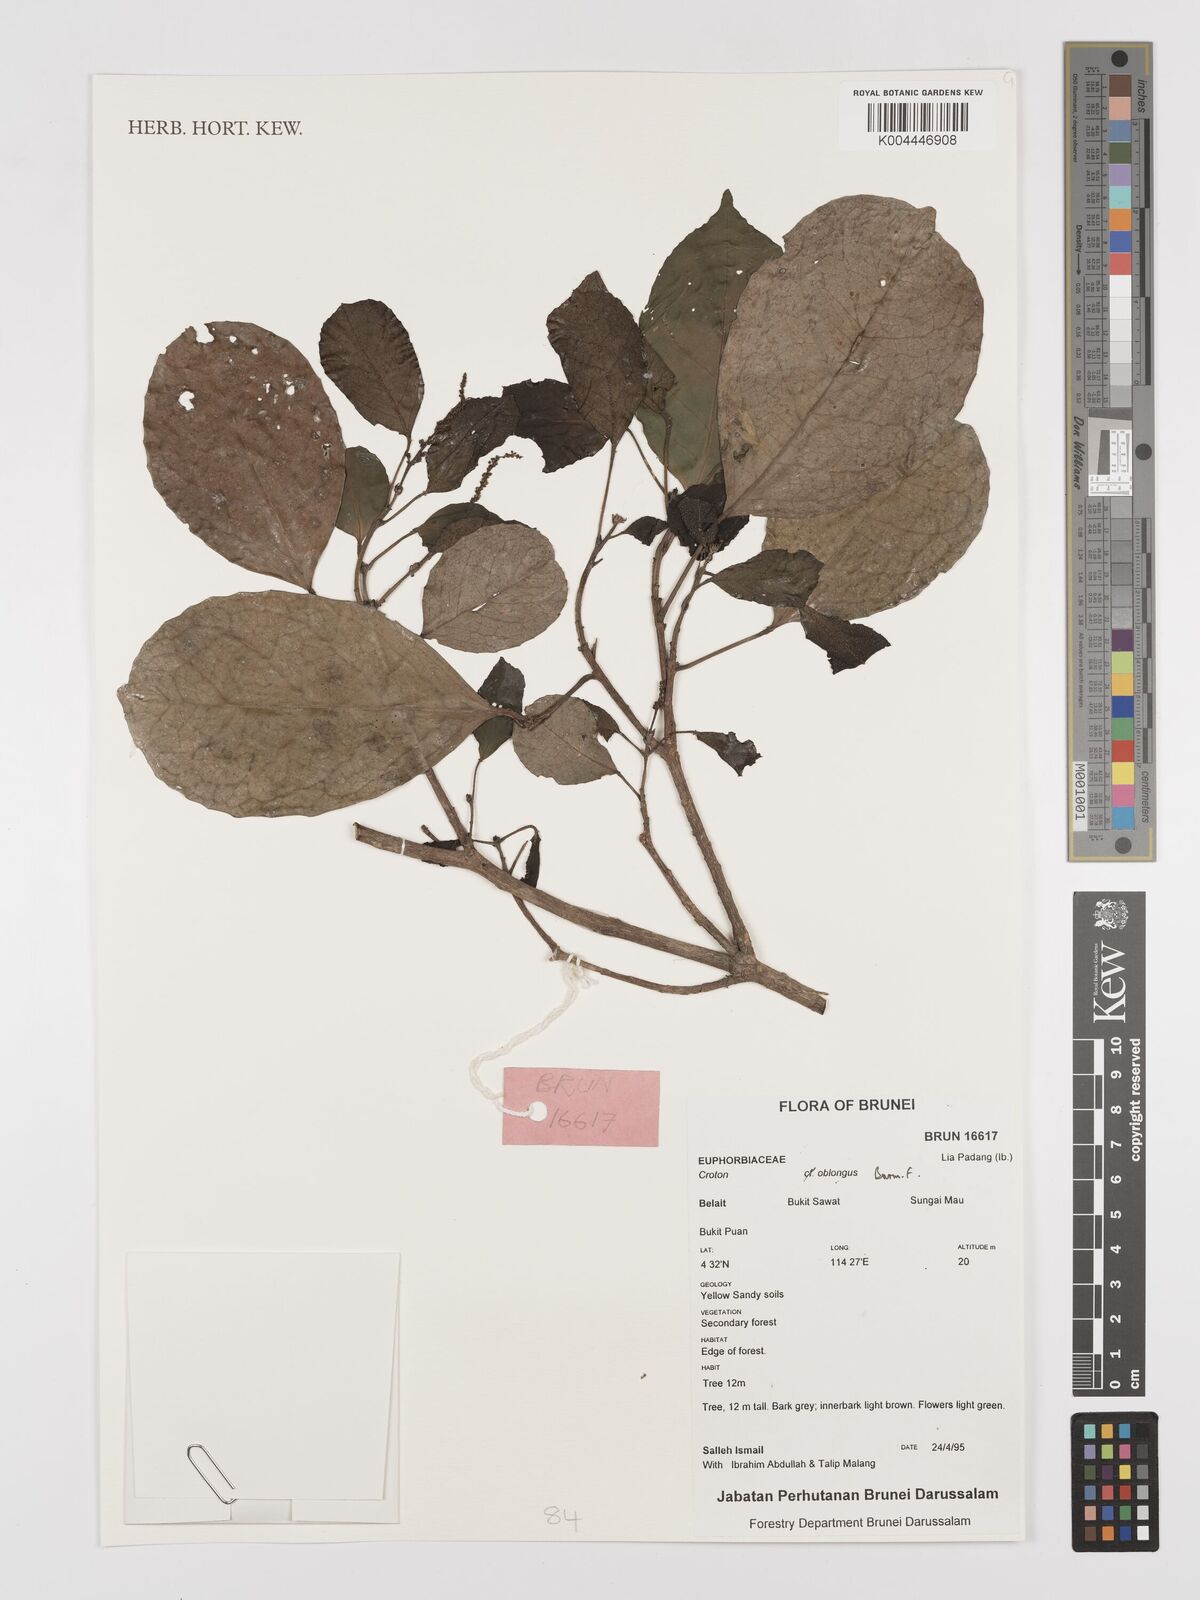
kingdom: Plantae
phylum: Tracheophyta
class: Magnoliopsida
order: Malpighiales
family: Euphorbiaceae
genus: Croton
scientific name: Croton oblongus
